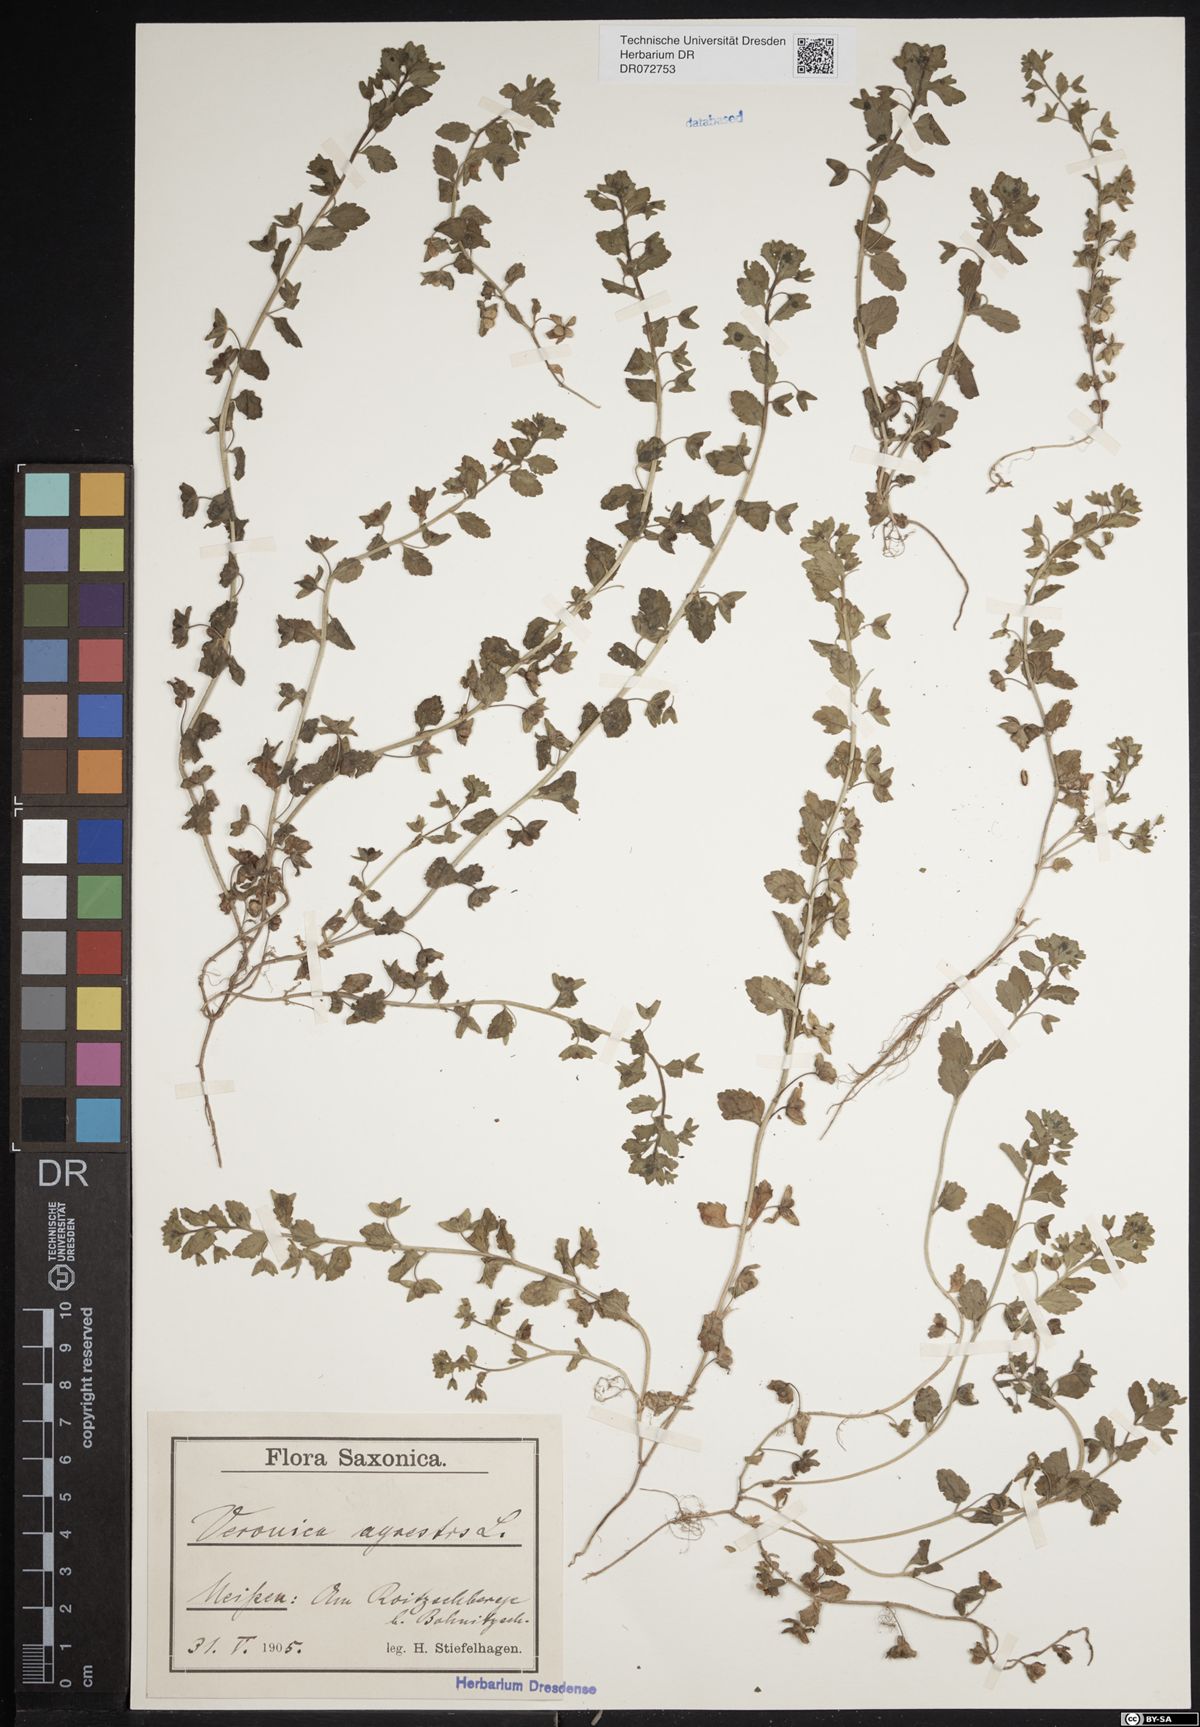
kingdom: Plantae
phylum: Tracheophyta
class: Magnoliopsida
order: Lamiales
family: Plantaginaceae
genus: Veronica
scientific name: Veronica agrestis
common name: Green field-speedwell
